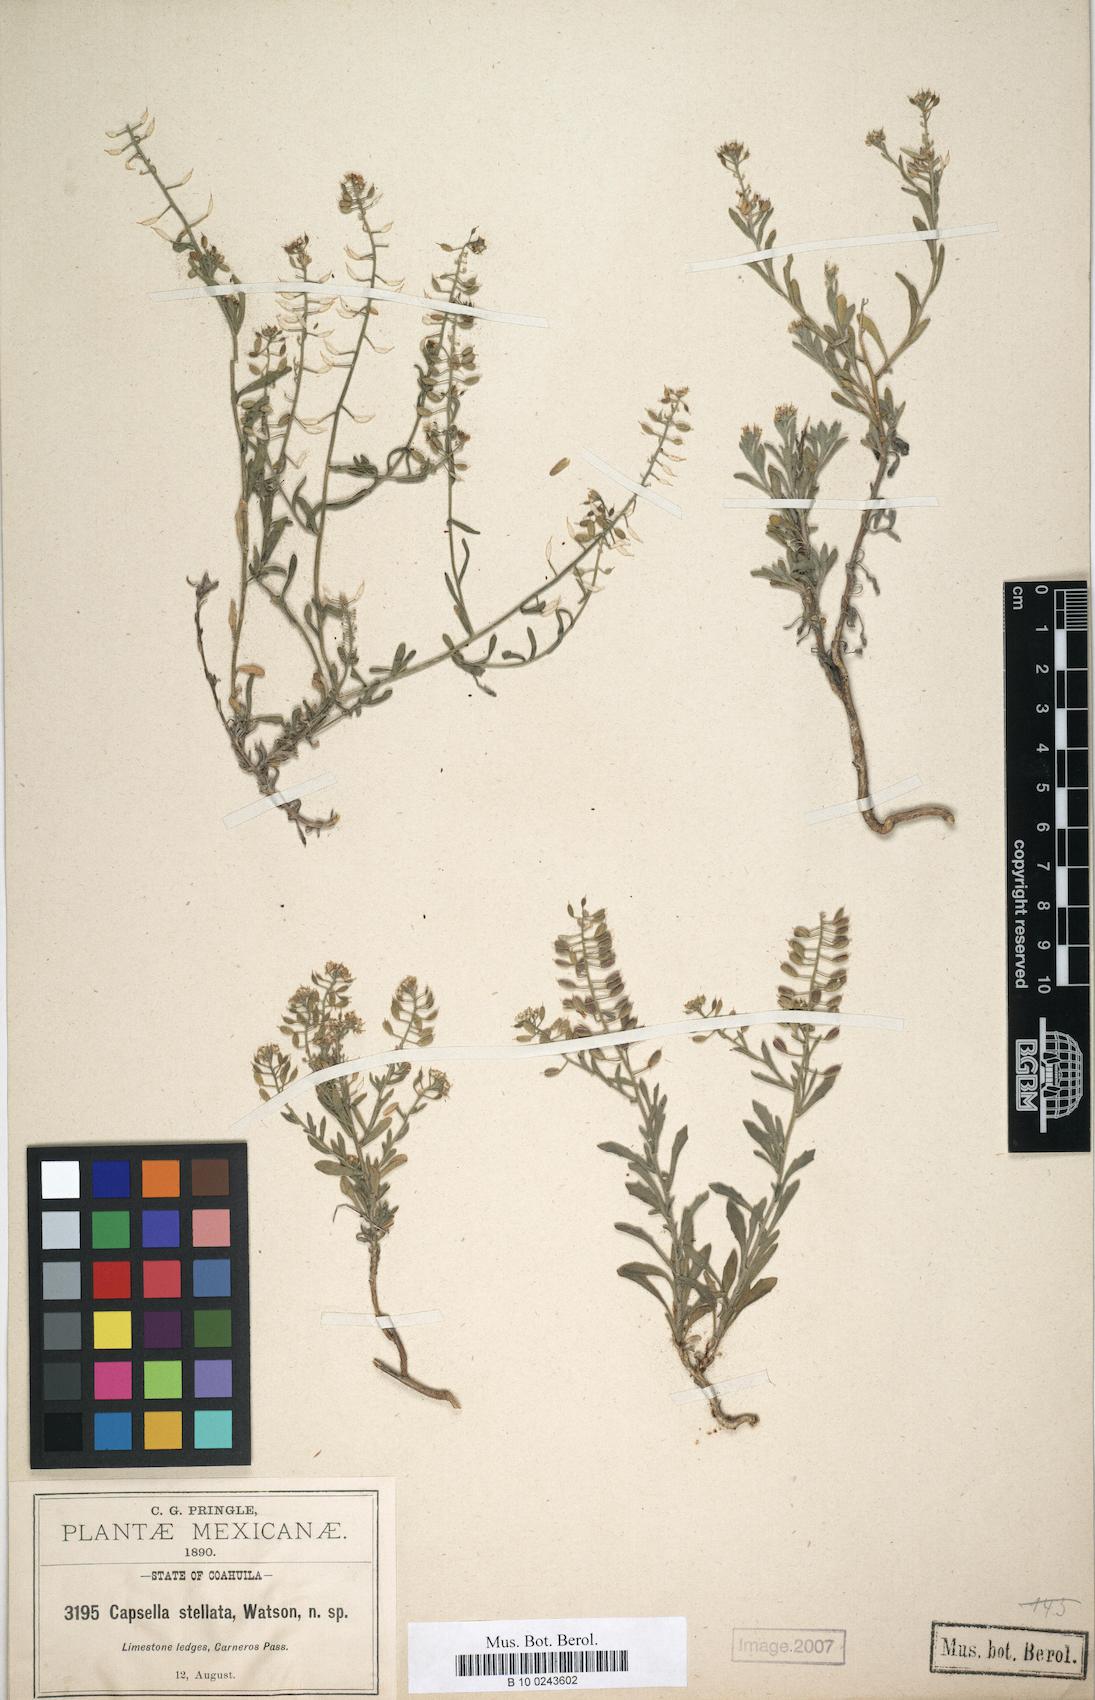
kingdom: Plantae
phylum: Tracheophyta
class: Magnoliopsida
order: Brassicales
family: Brassicaceae
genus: Sphaerocardamum
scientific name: Sphaerocardamum stellatum
